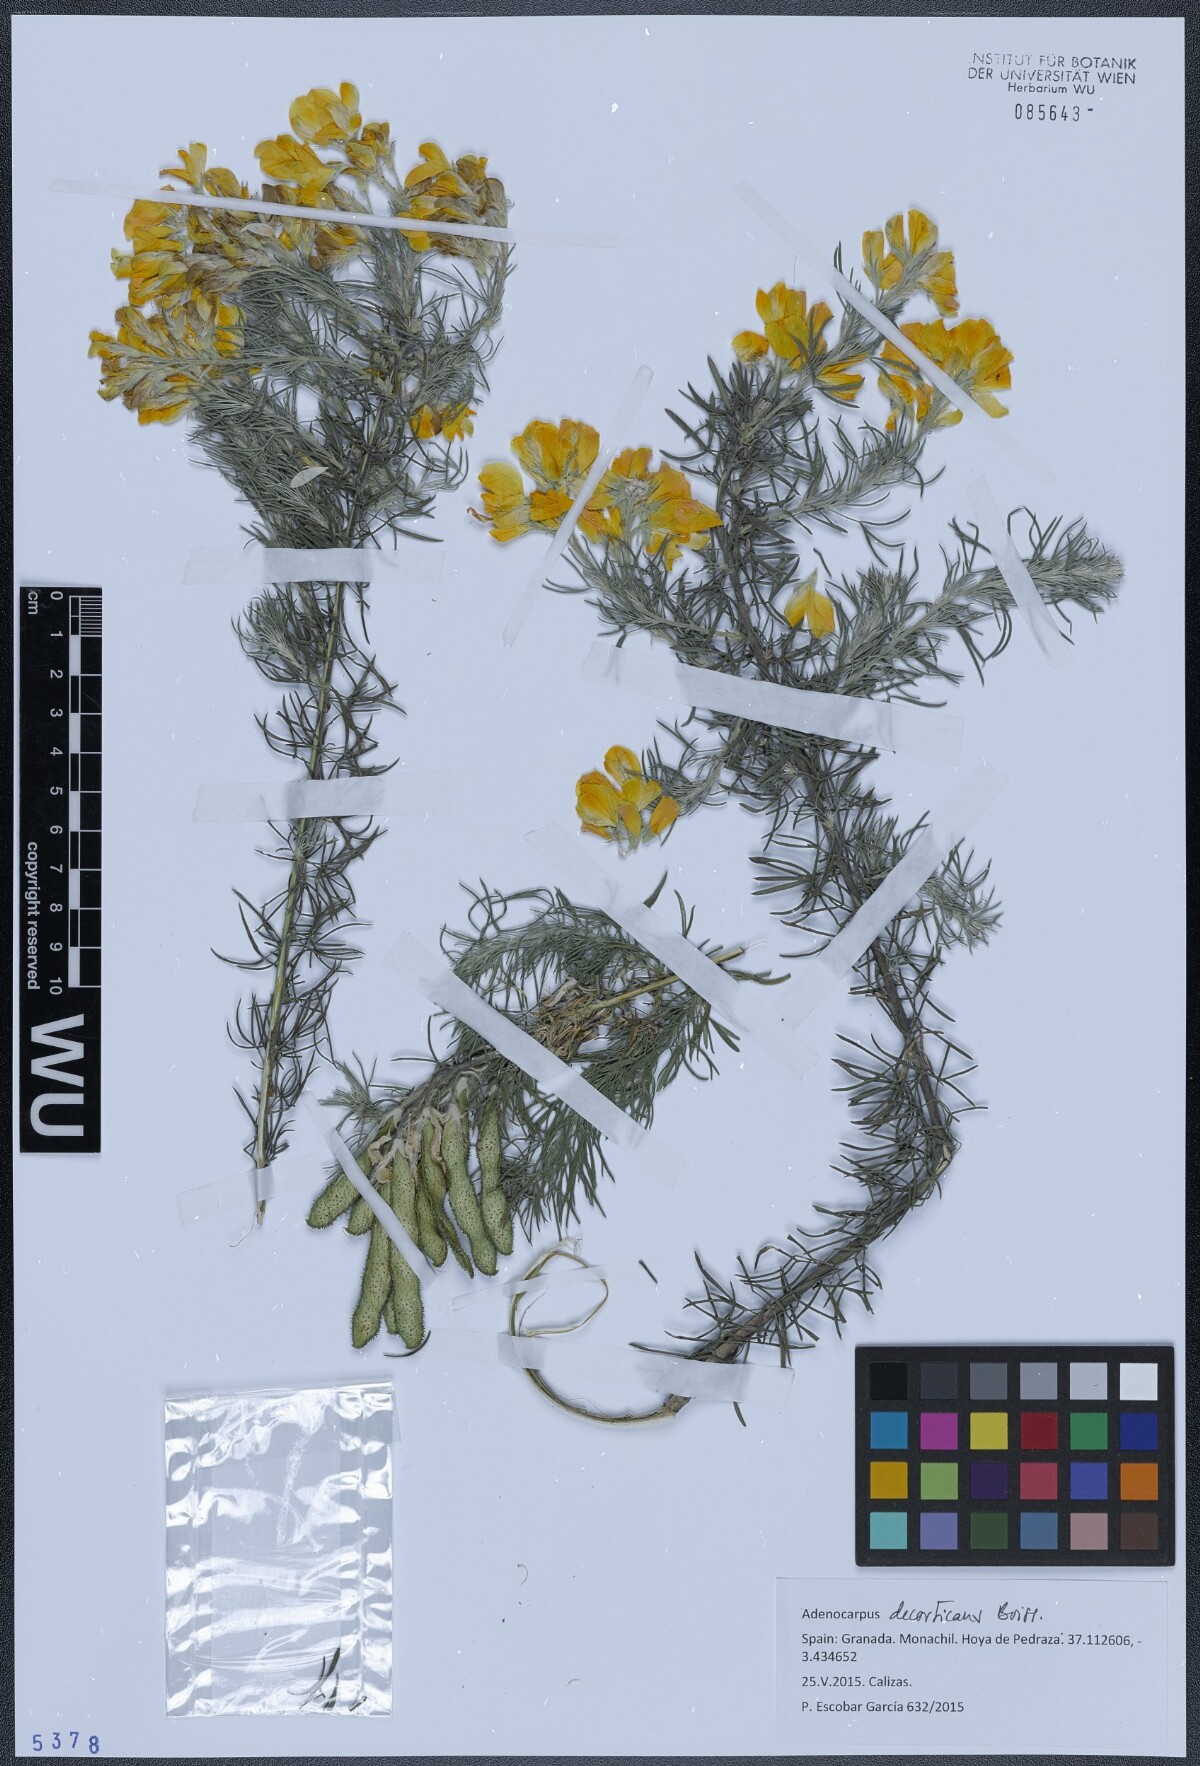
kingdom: Plantae
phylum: Tracheophyta
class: Magnoliopsida
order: Fabales
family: Fabaceae
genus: Adenocarpus
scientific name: Adenocarpus decorticans
